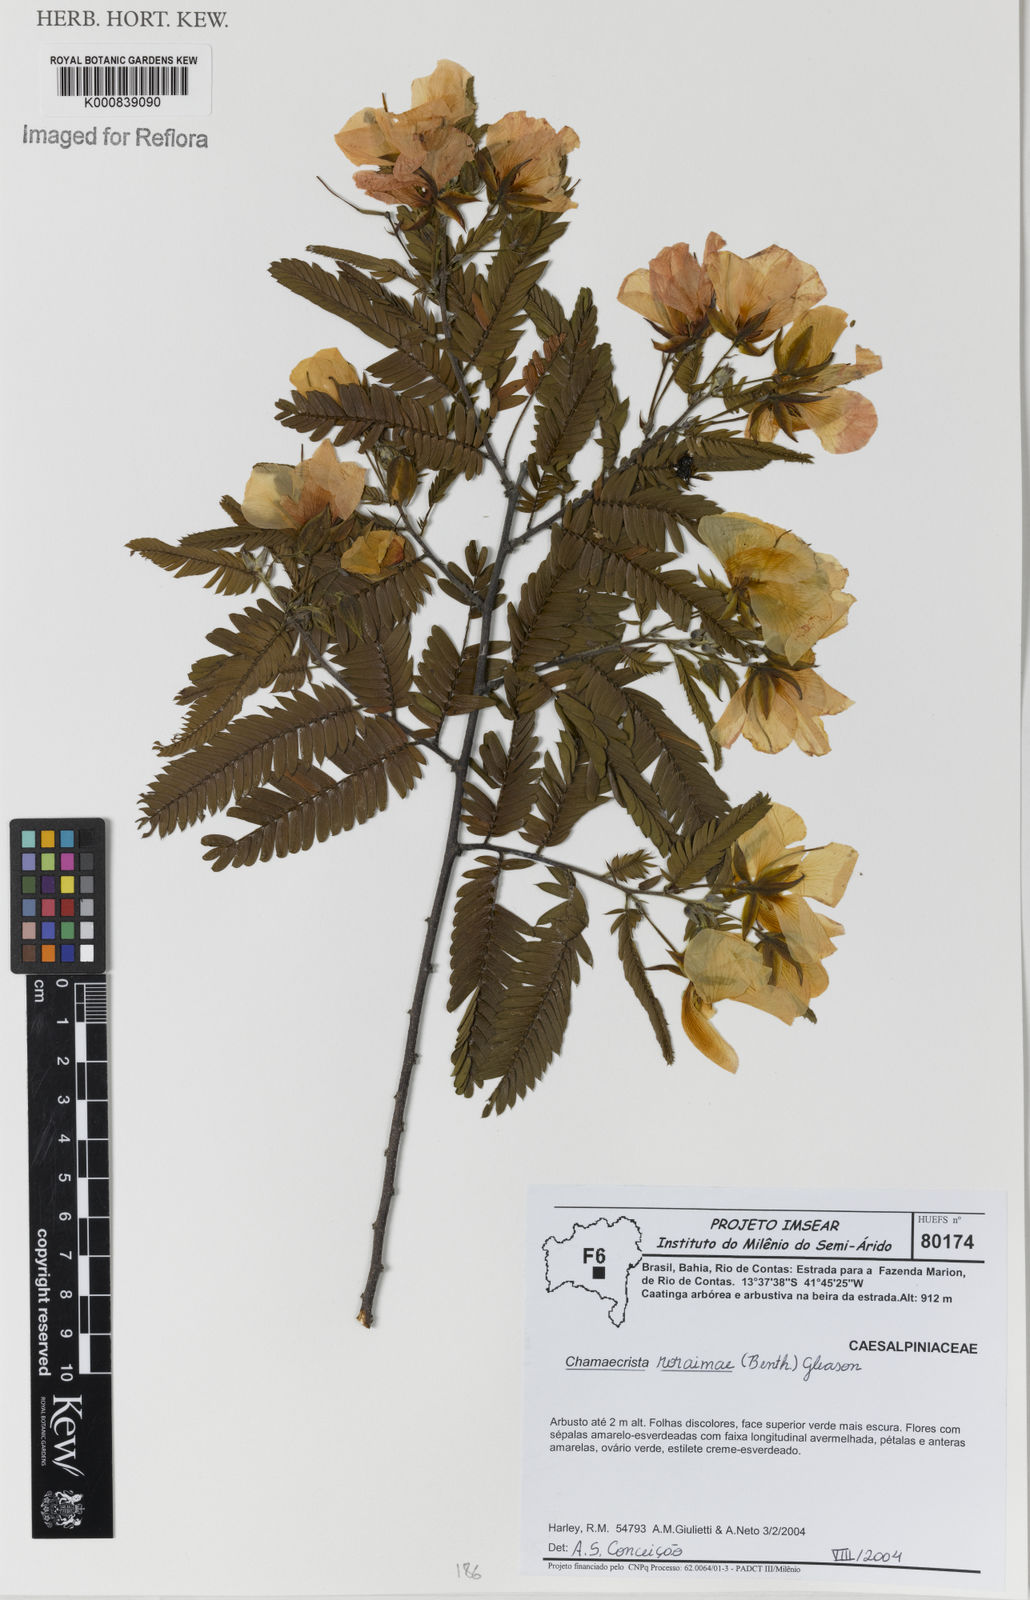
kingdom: Plantae
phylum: Tracheophyta
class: Magnoliopsida
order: Fabales
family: Fabaceae
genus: Chamaecrista
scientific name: Chamaecrista roraimae
